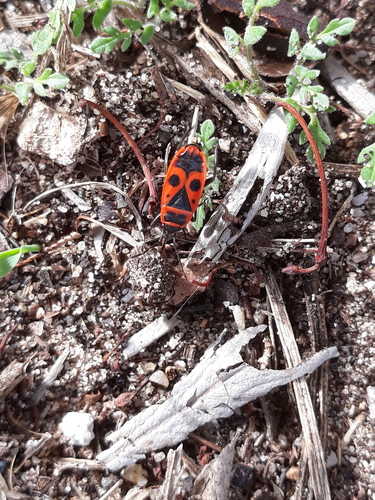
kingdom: Animalia
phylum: Arthropoda
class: Insecta
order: Hemiptera
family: Pyrrhocoridae
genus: Pyrrhocoris
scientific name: Pyrrhocoris apterus
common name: Firebug
